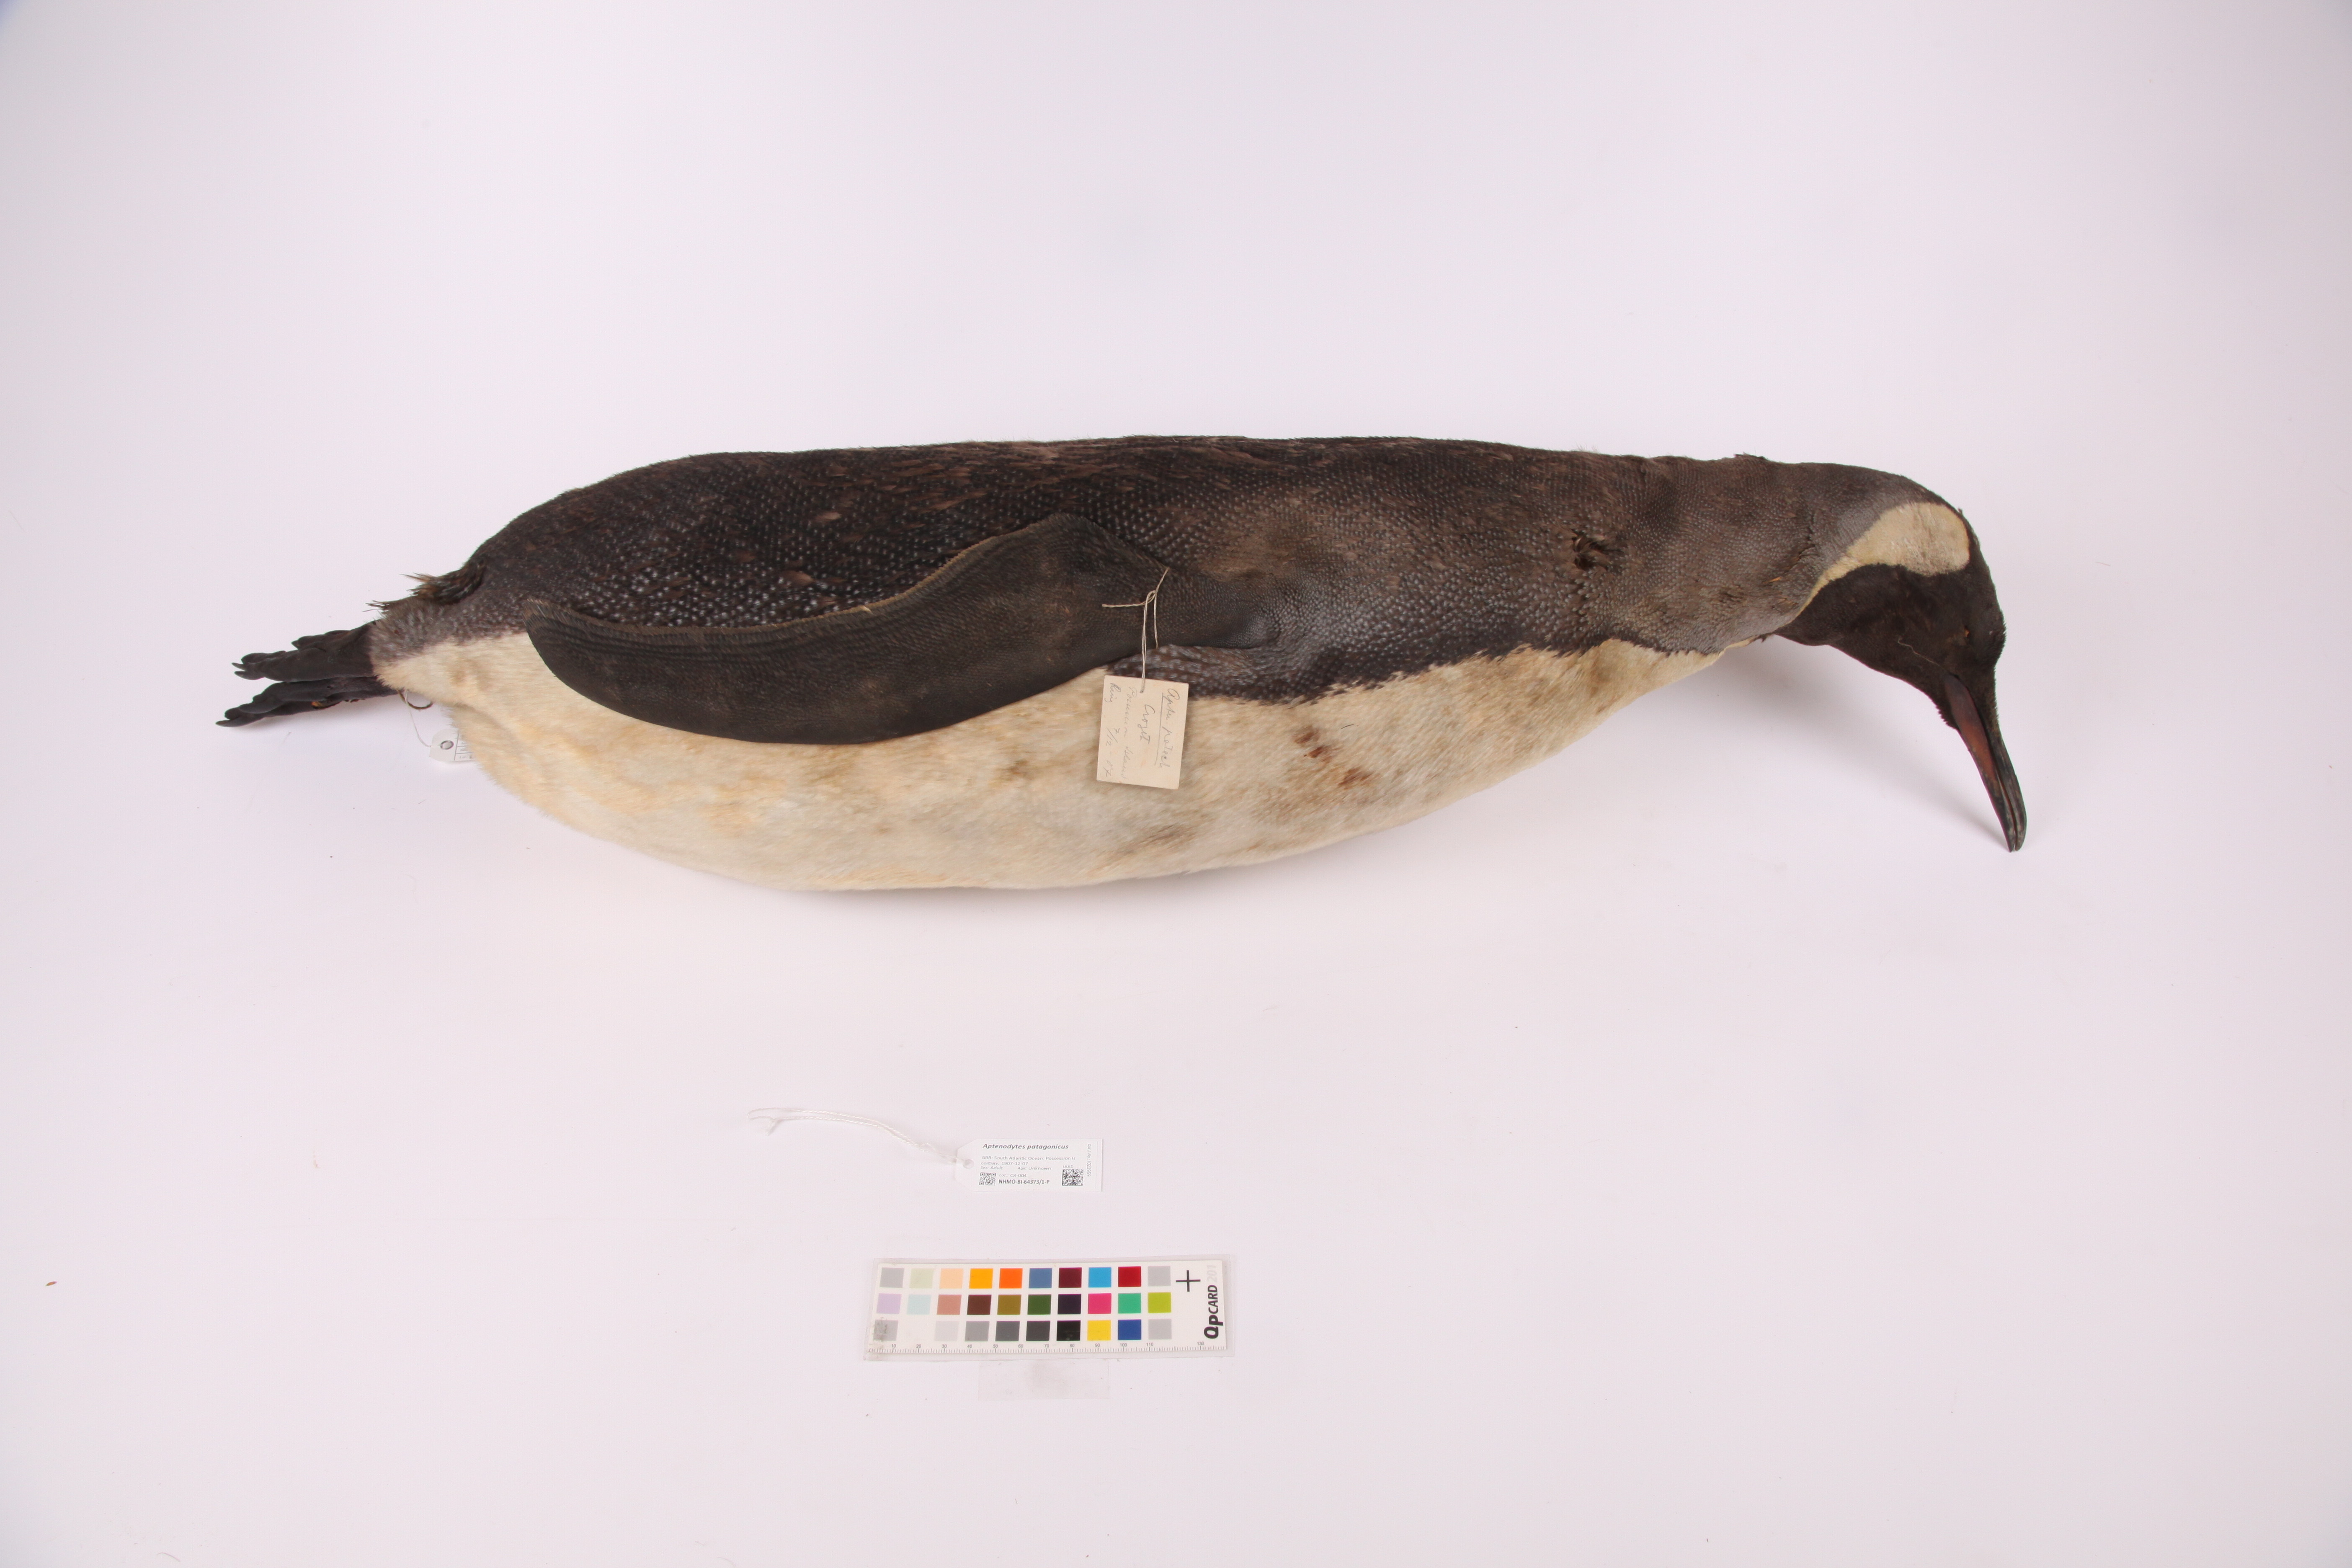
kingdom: Animalia
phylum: Chordata
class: Aves
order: Sphenisciformes
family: Spheniscidae
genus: Aptenodytes
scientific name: Aptenodytes patagonicus
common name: King penguin
